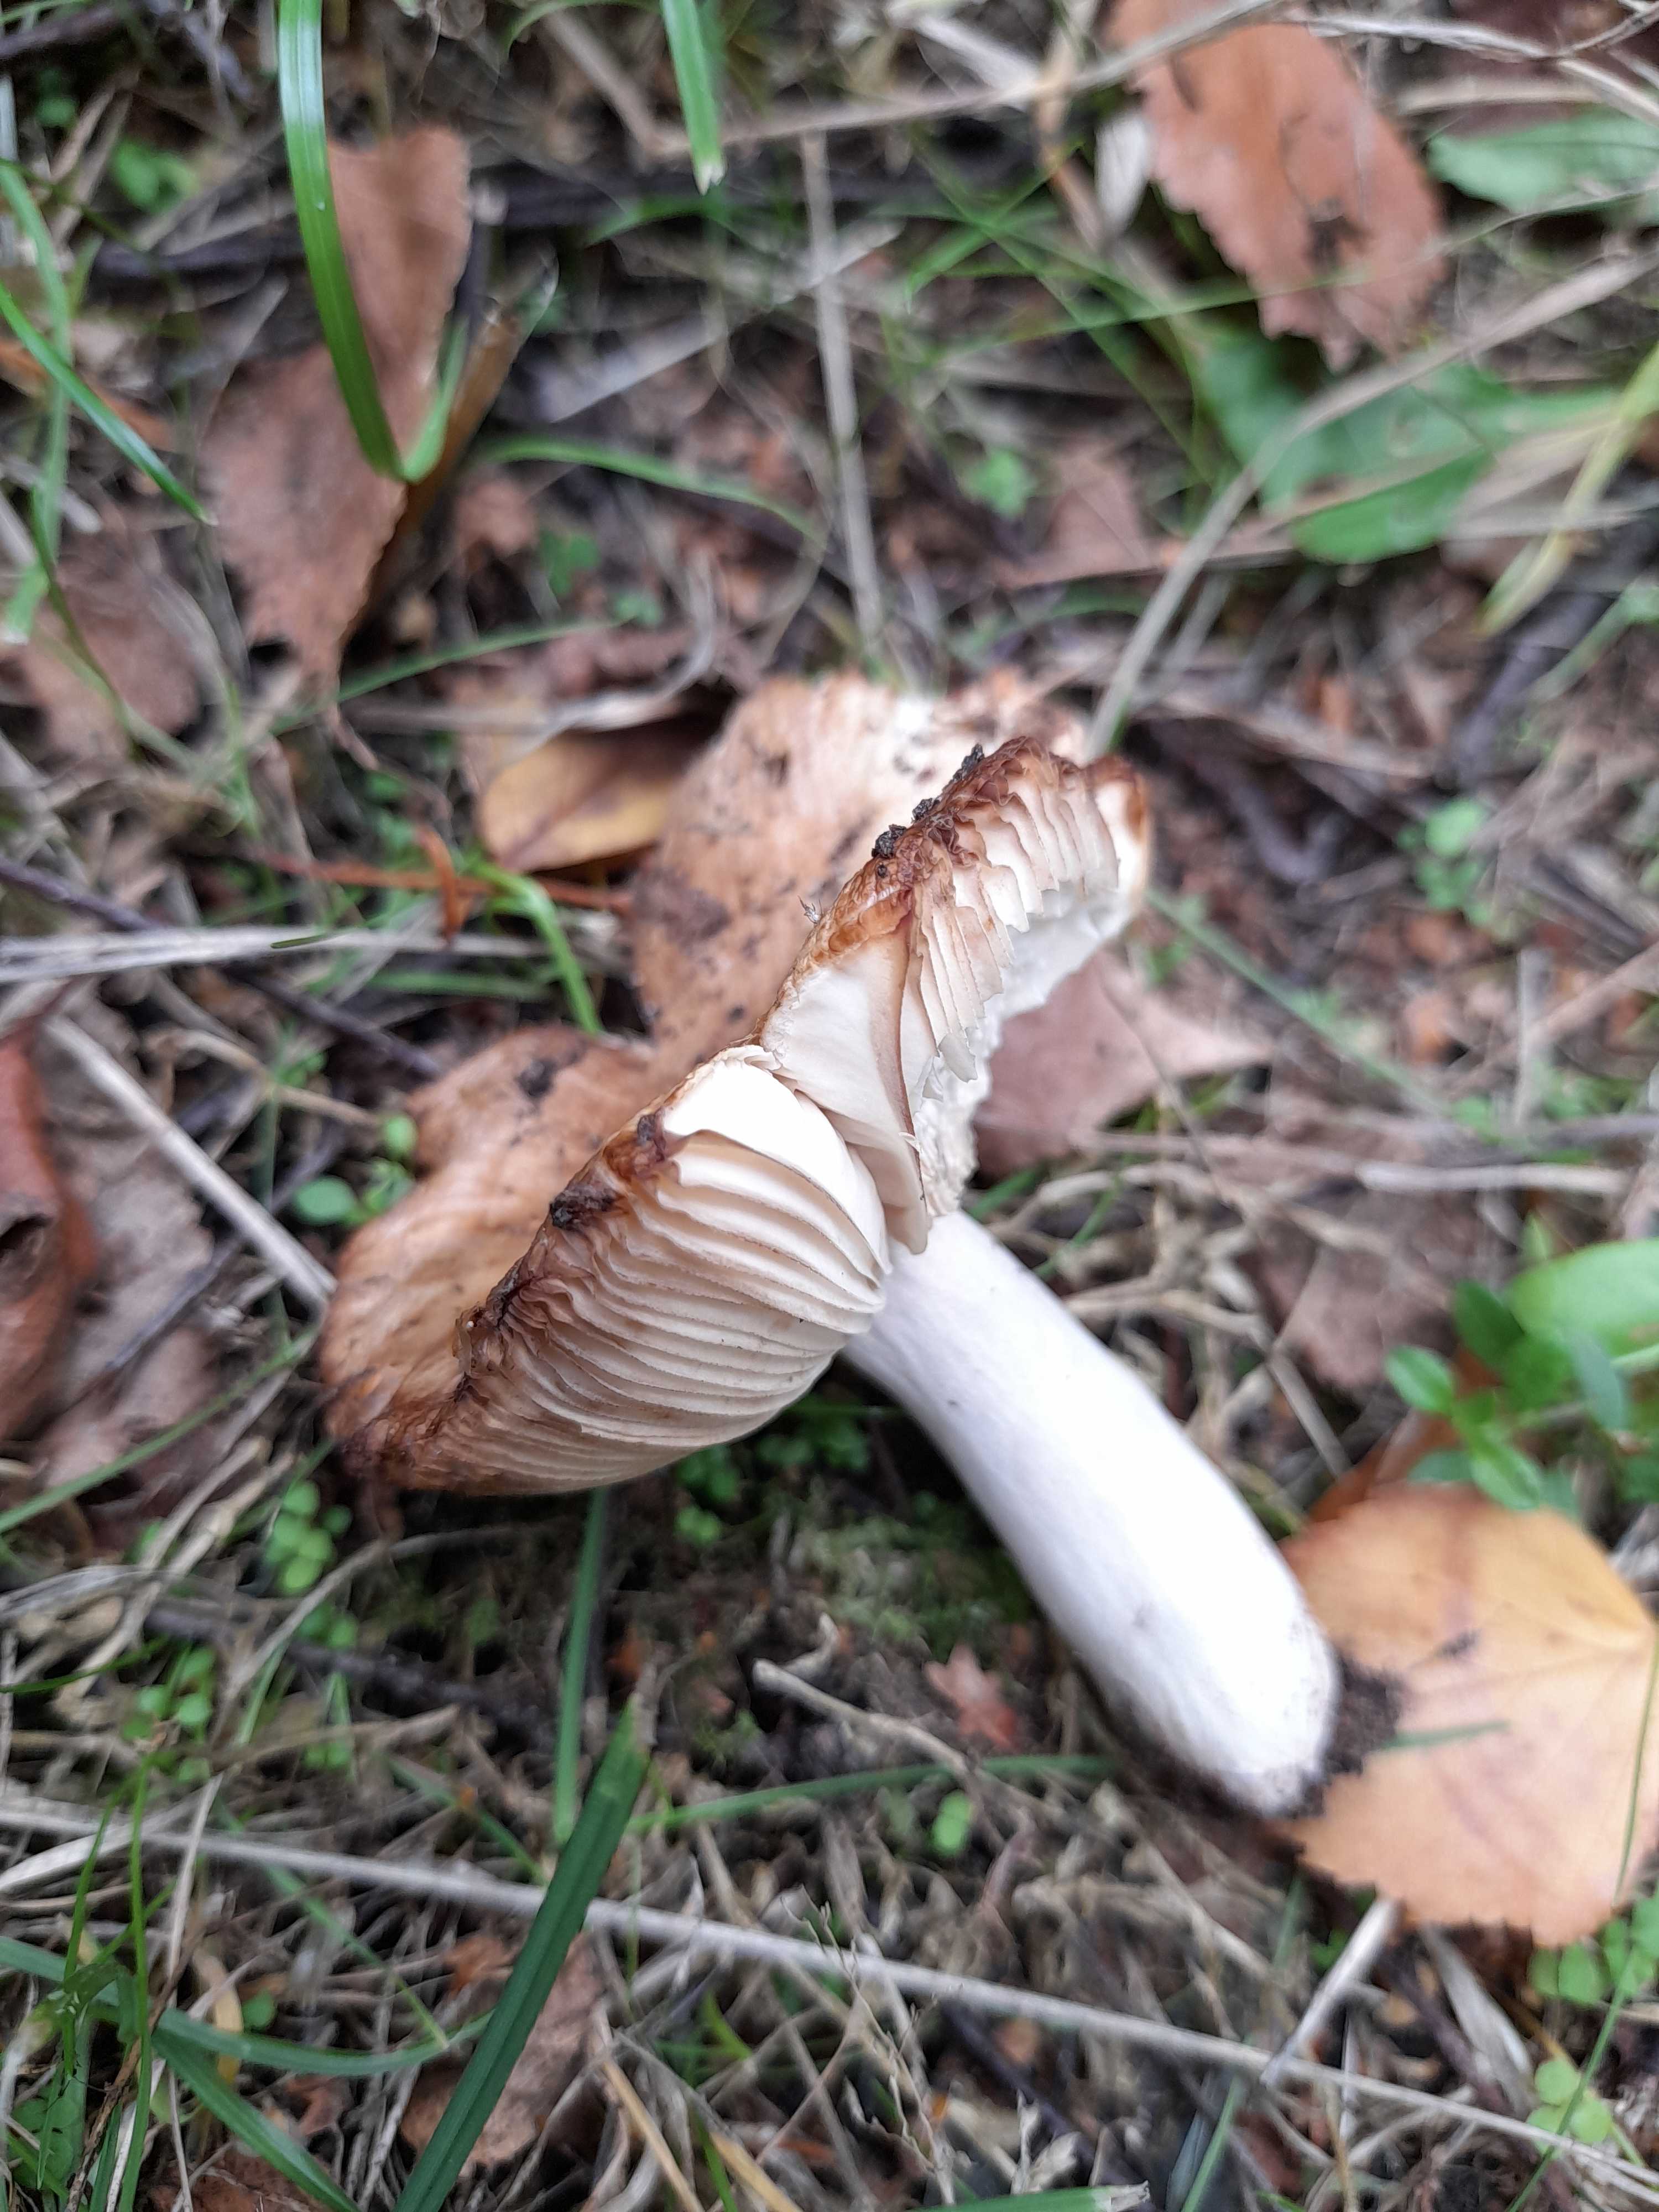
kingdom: Fungi
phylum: Basidiomycota
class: Agaricomycetes
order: Russulales
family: Russulaceae
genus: Russula
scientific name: Russula recondita
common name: mild kam-skørhat
